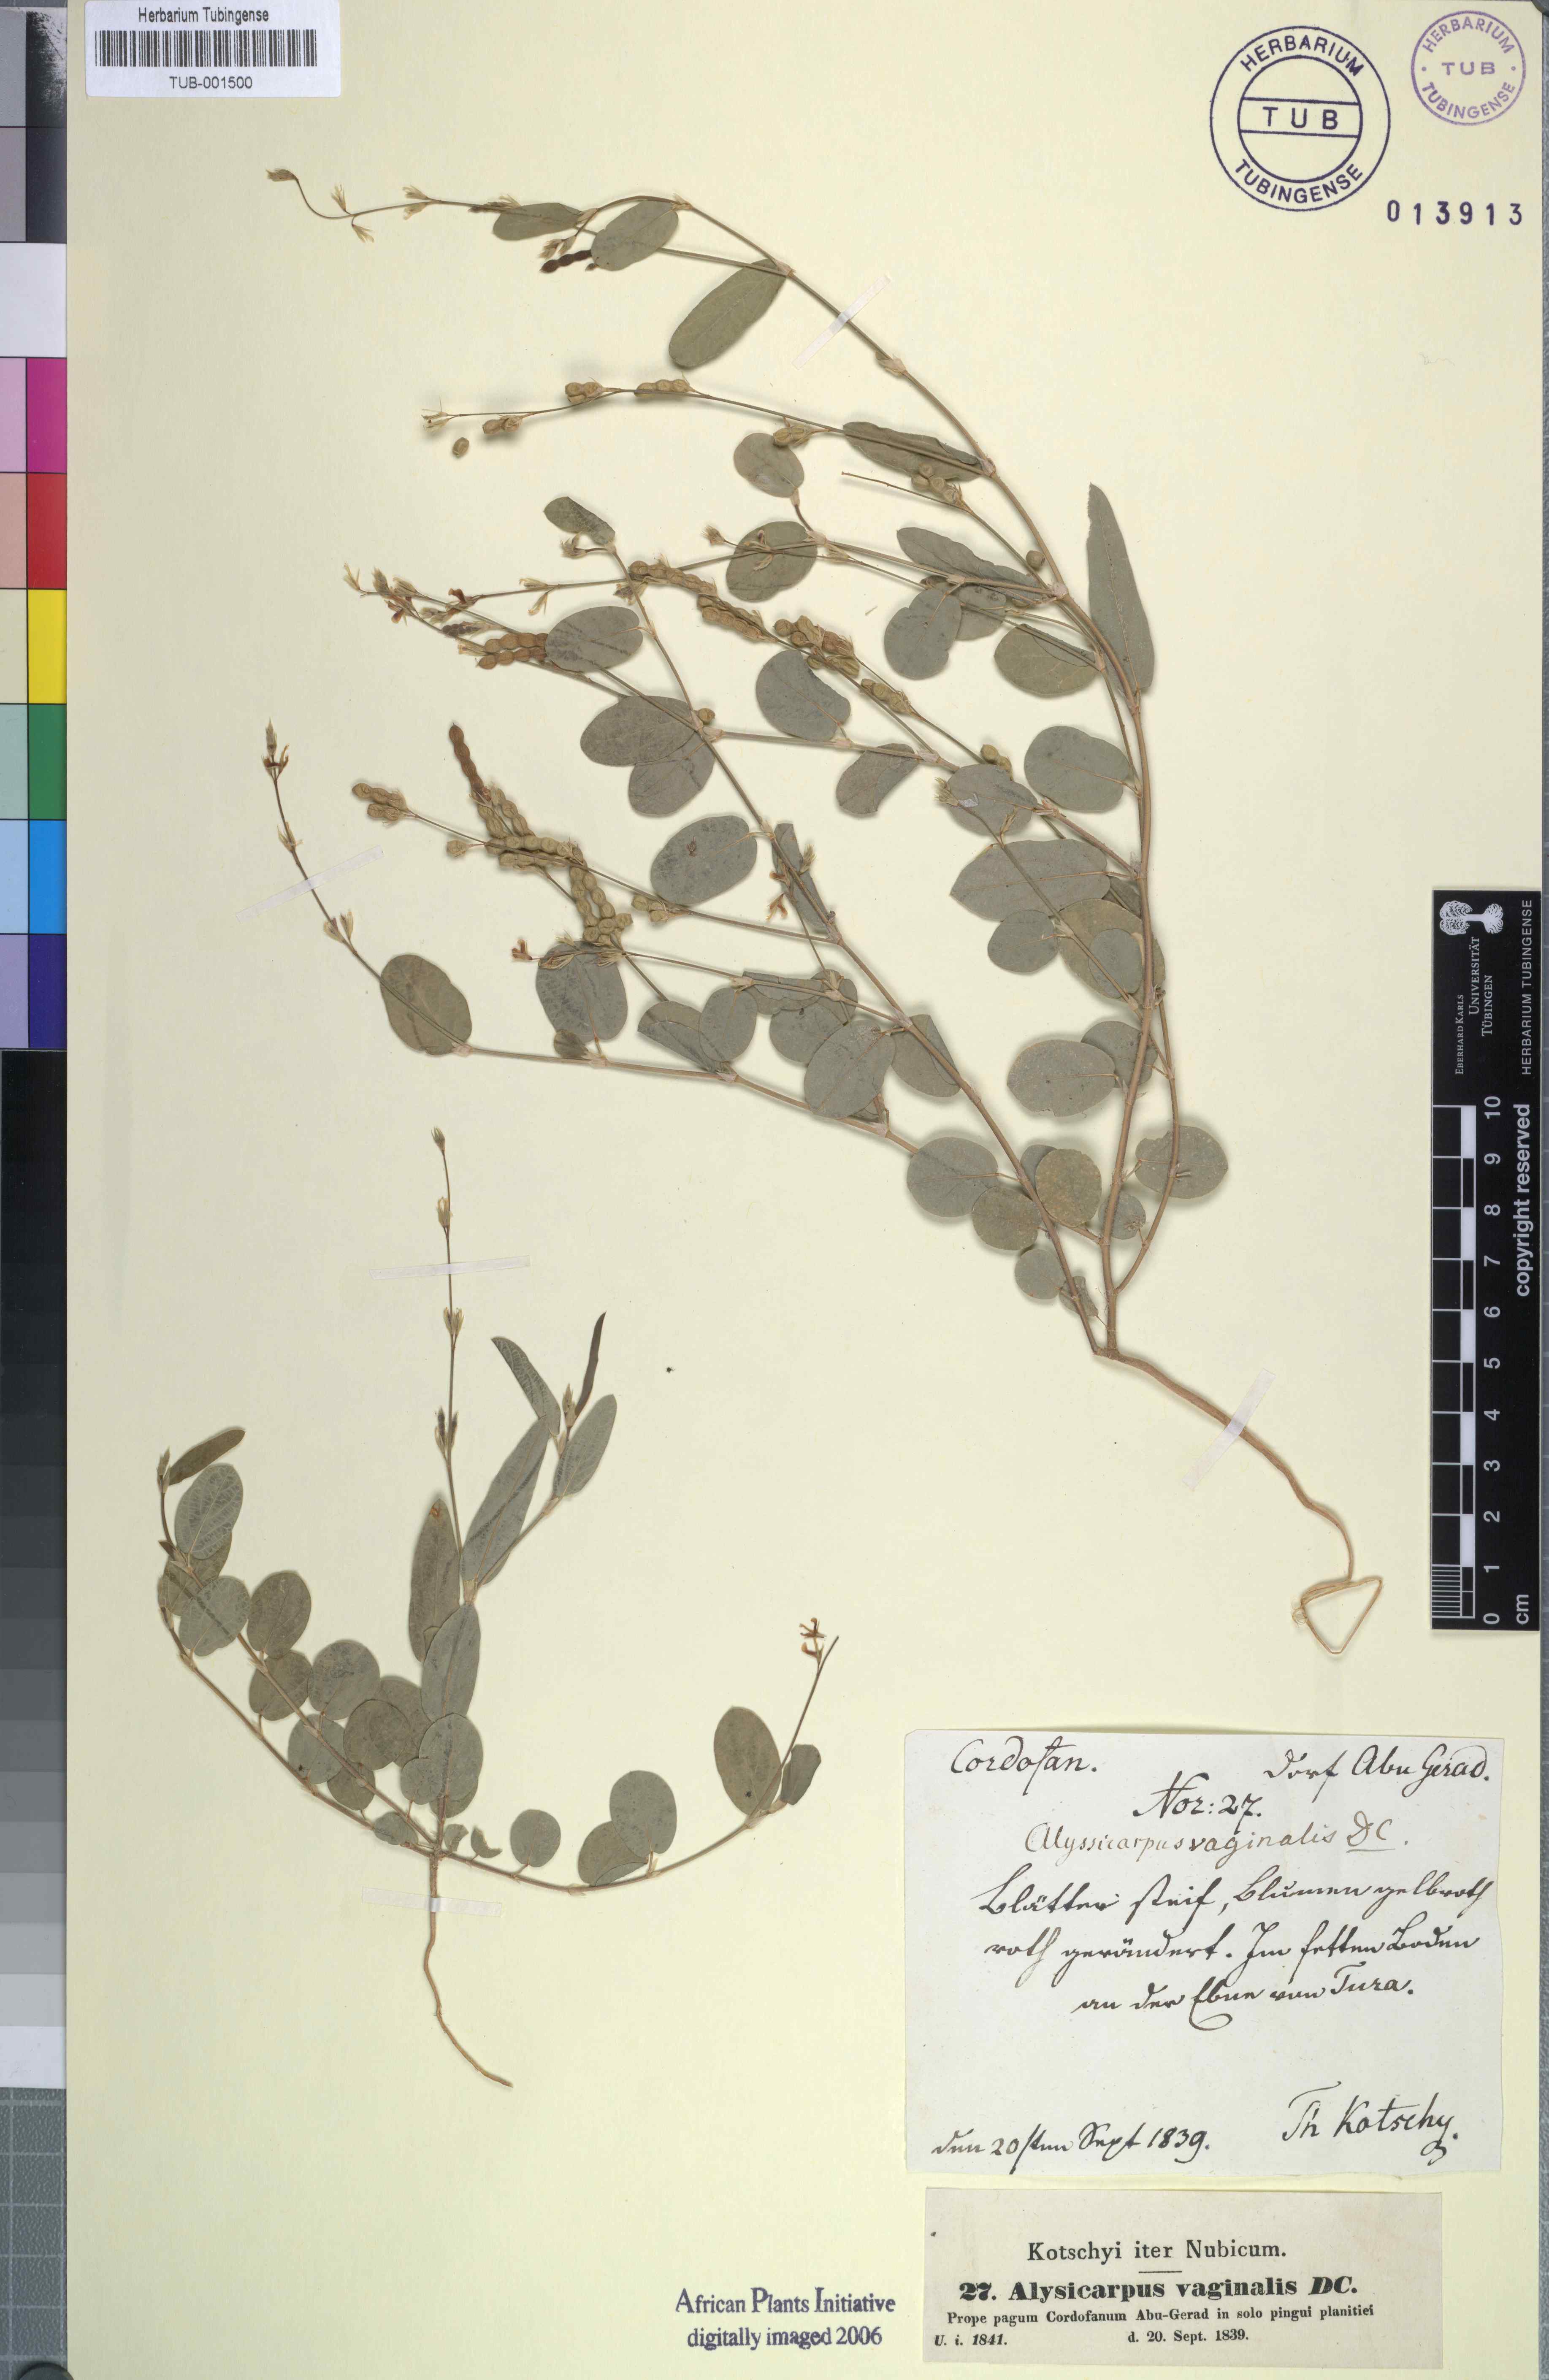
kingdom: Plantae
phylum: Tracheophyta
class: Magnoliopsida
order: Fabales
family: Fabaceae
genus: Alysicarpus
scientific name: Alysicarpus vaginalis
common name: White moneywort
